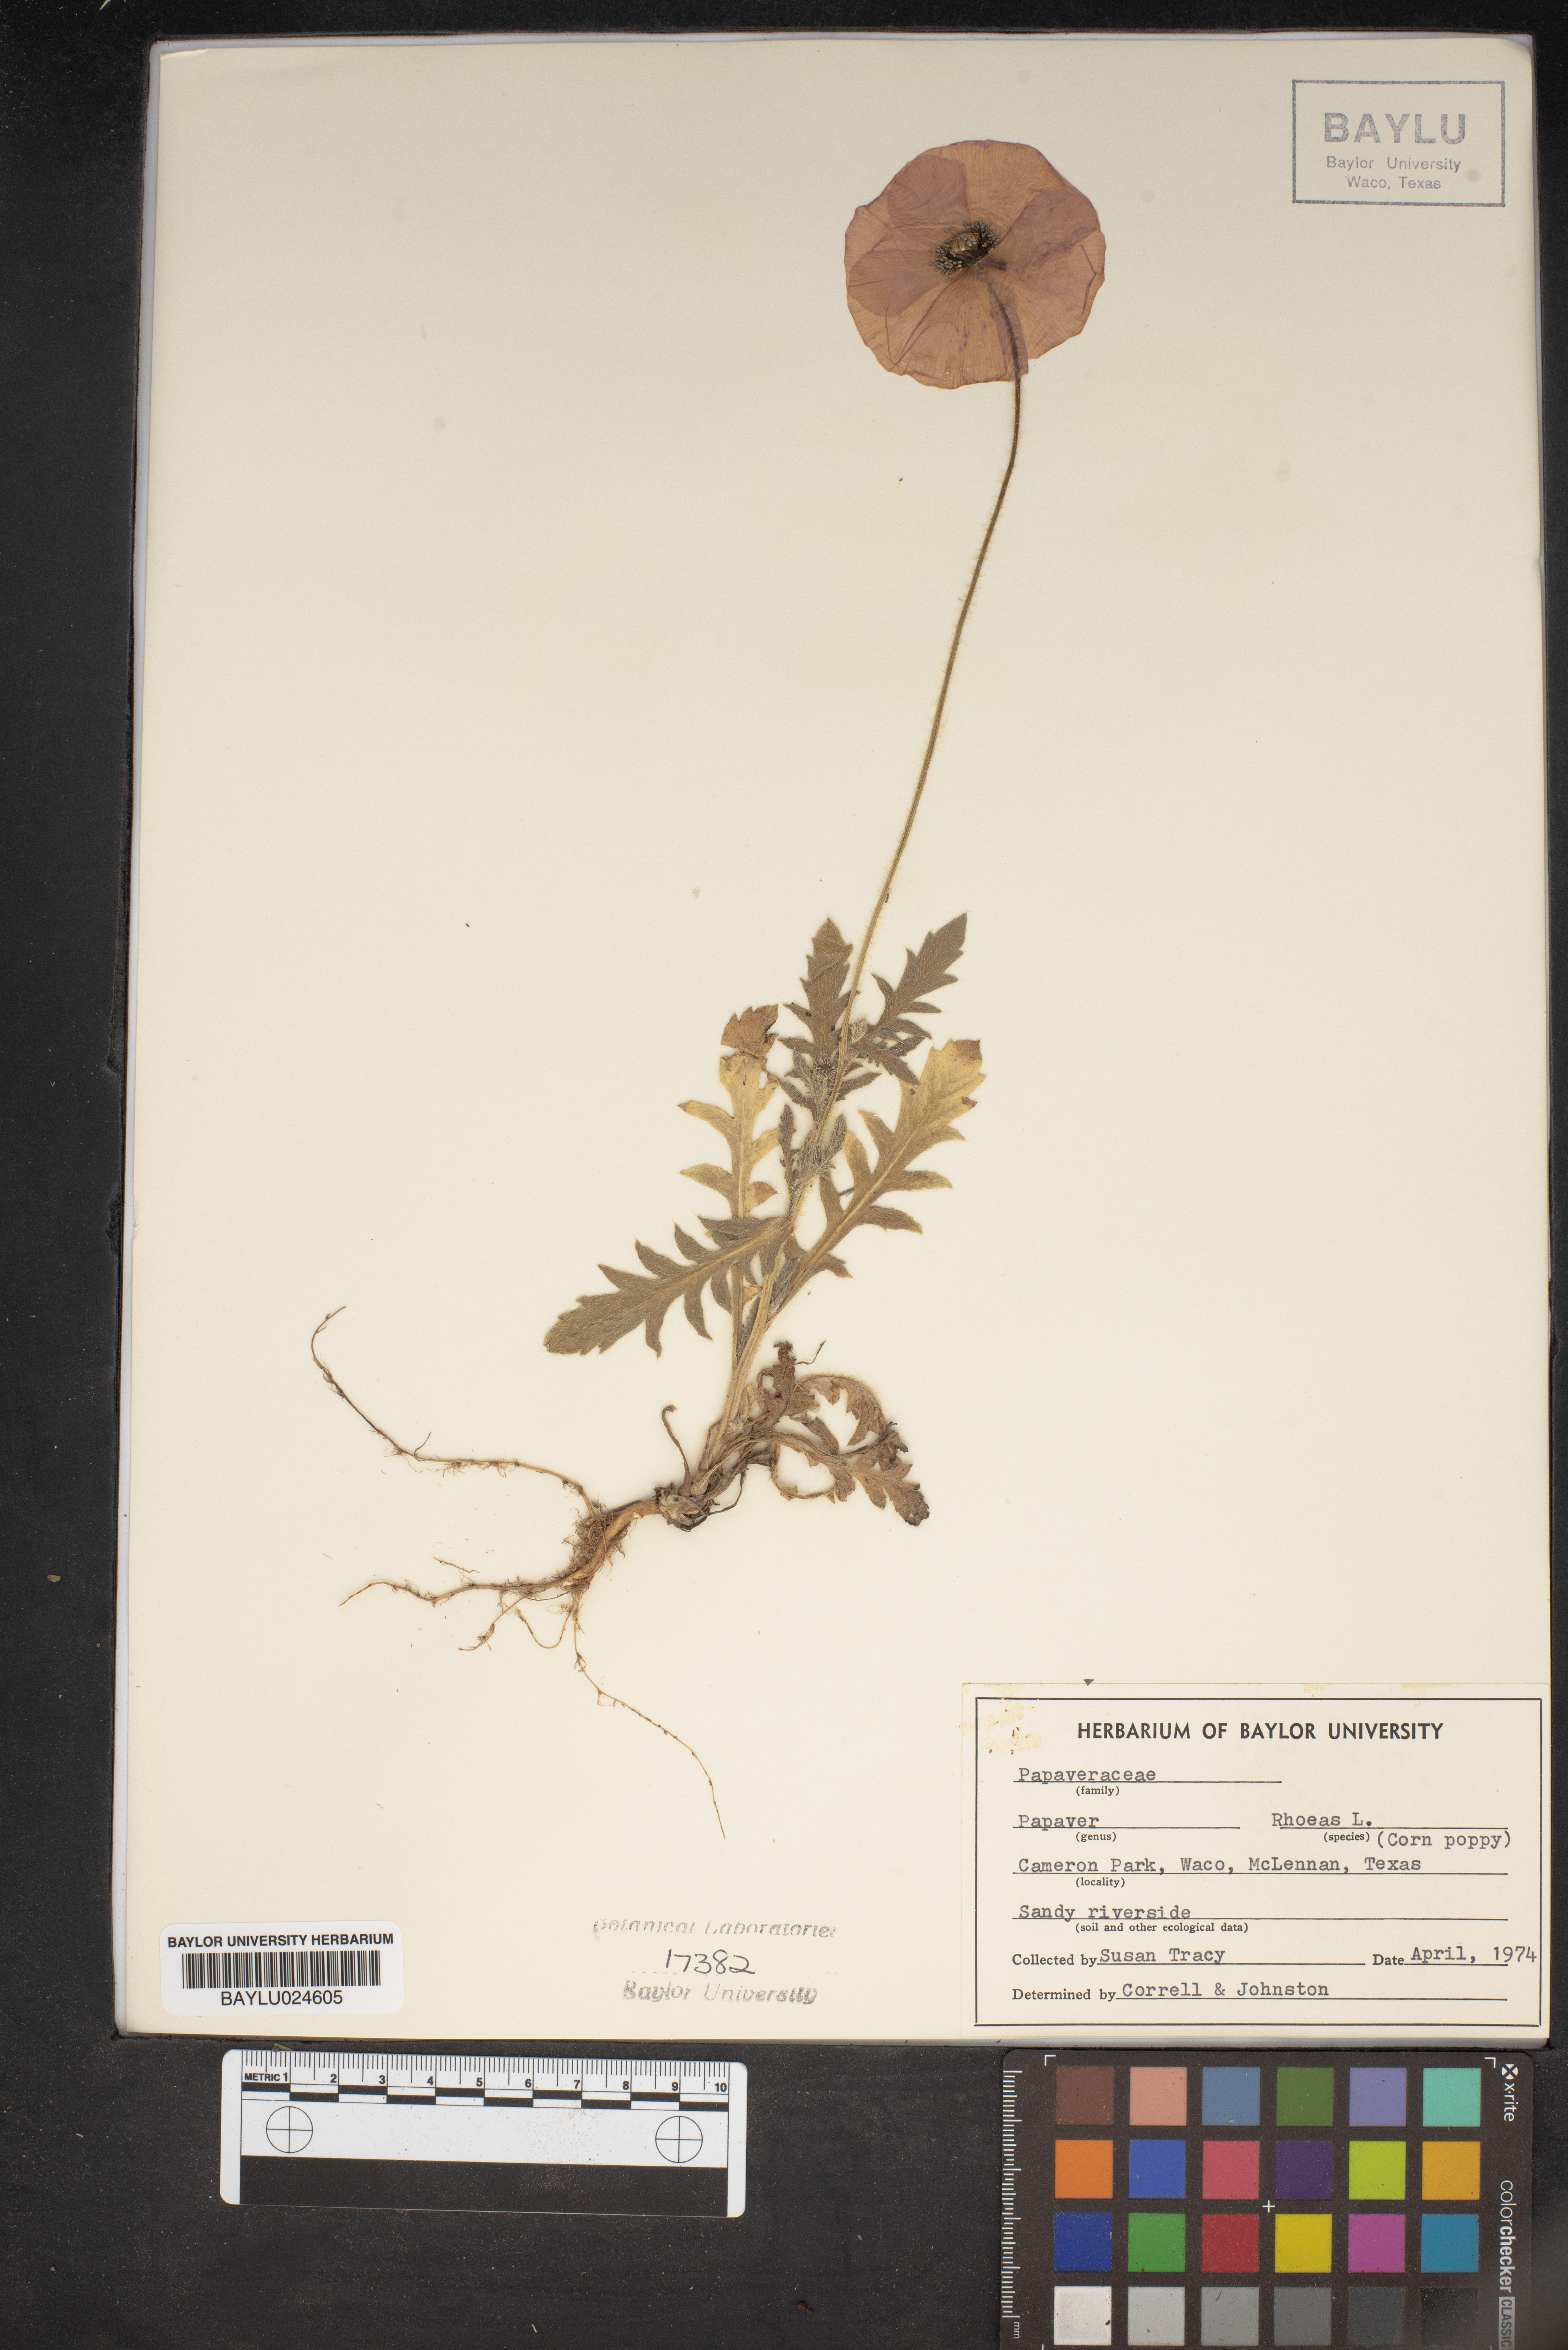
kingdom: Plantae
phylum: Tracheophyta
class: Magnoliopsida
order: Ranunculales
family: Papaveraceae
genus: Papaver
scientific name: Papaver rhoeas
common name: Corn poppy
